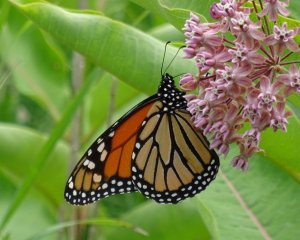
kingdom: Animalia
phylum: Arthropoda
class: Insecta
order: Lepidoptera
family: Nymphalidae
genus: Danaus
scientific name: Danaus plexippus
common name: Monarch
